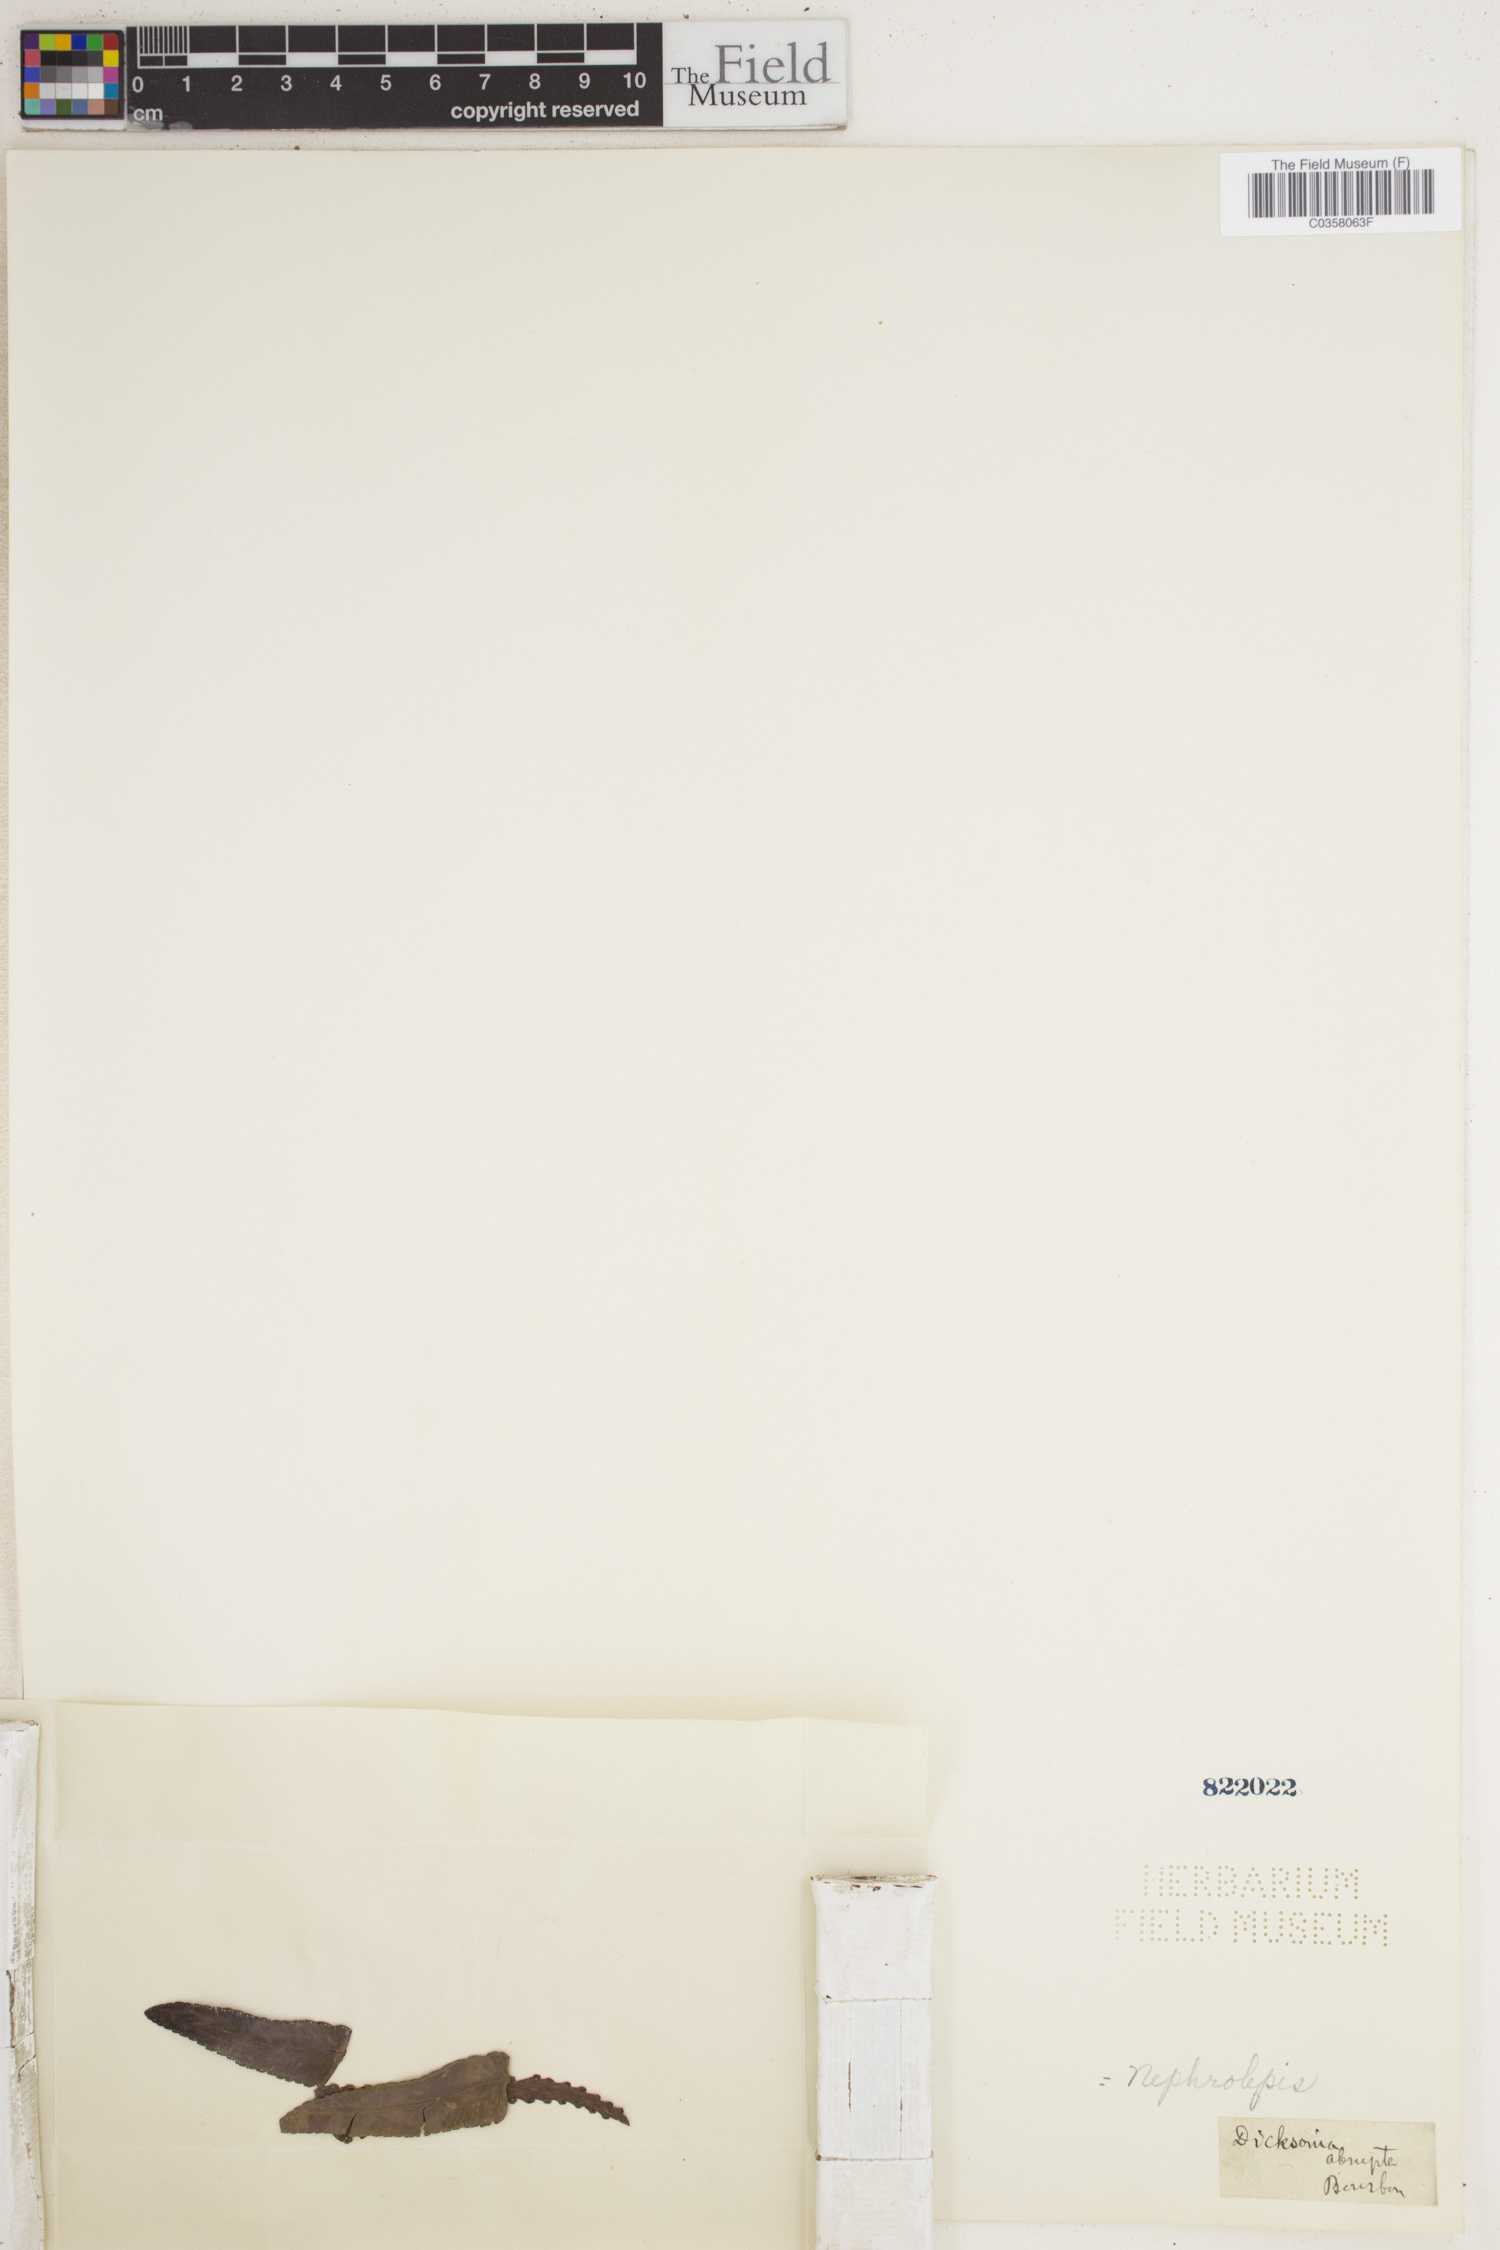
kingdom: Plantae
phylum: Tracheophyta
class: Polypodiopsida
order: Polypodiales
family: Nephrolepidaceae
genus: Nephrolepis
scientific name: Nephrolepis abrupta
